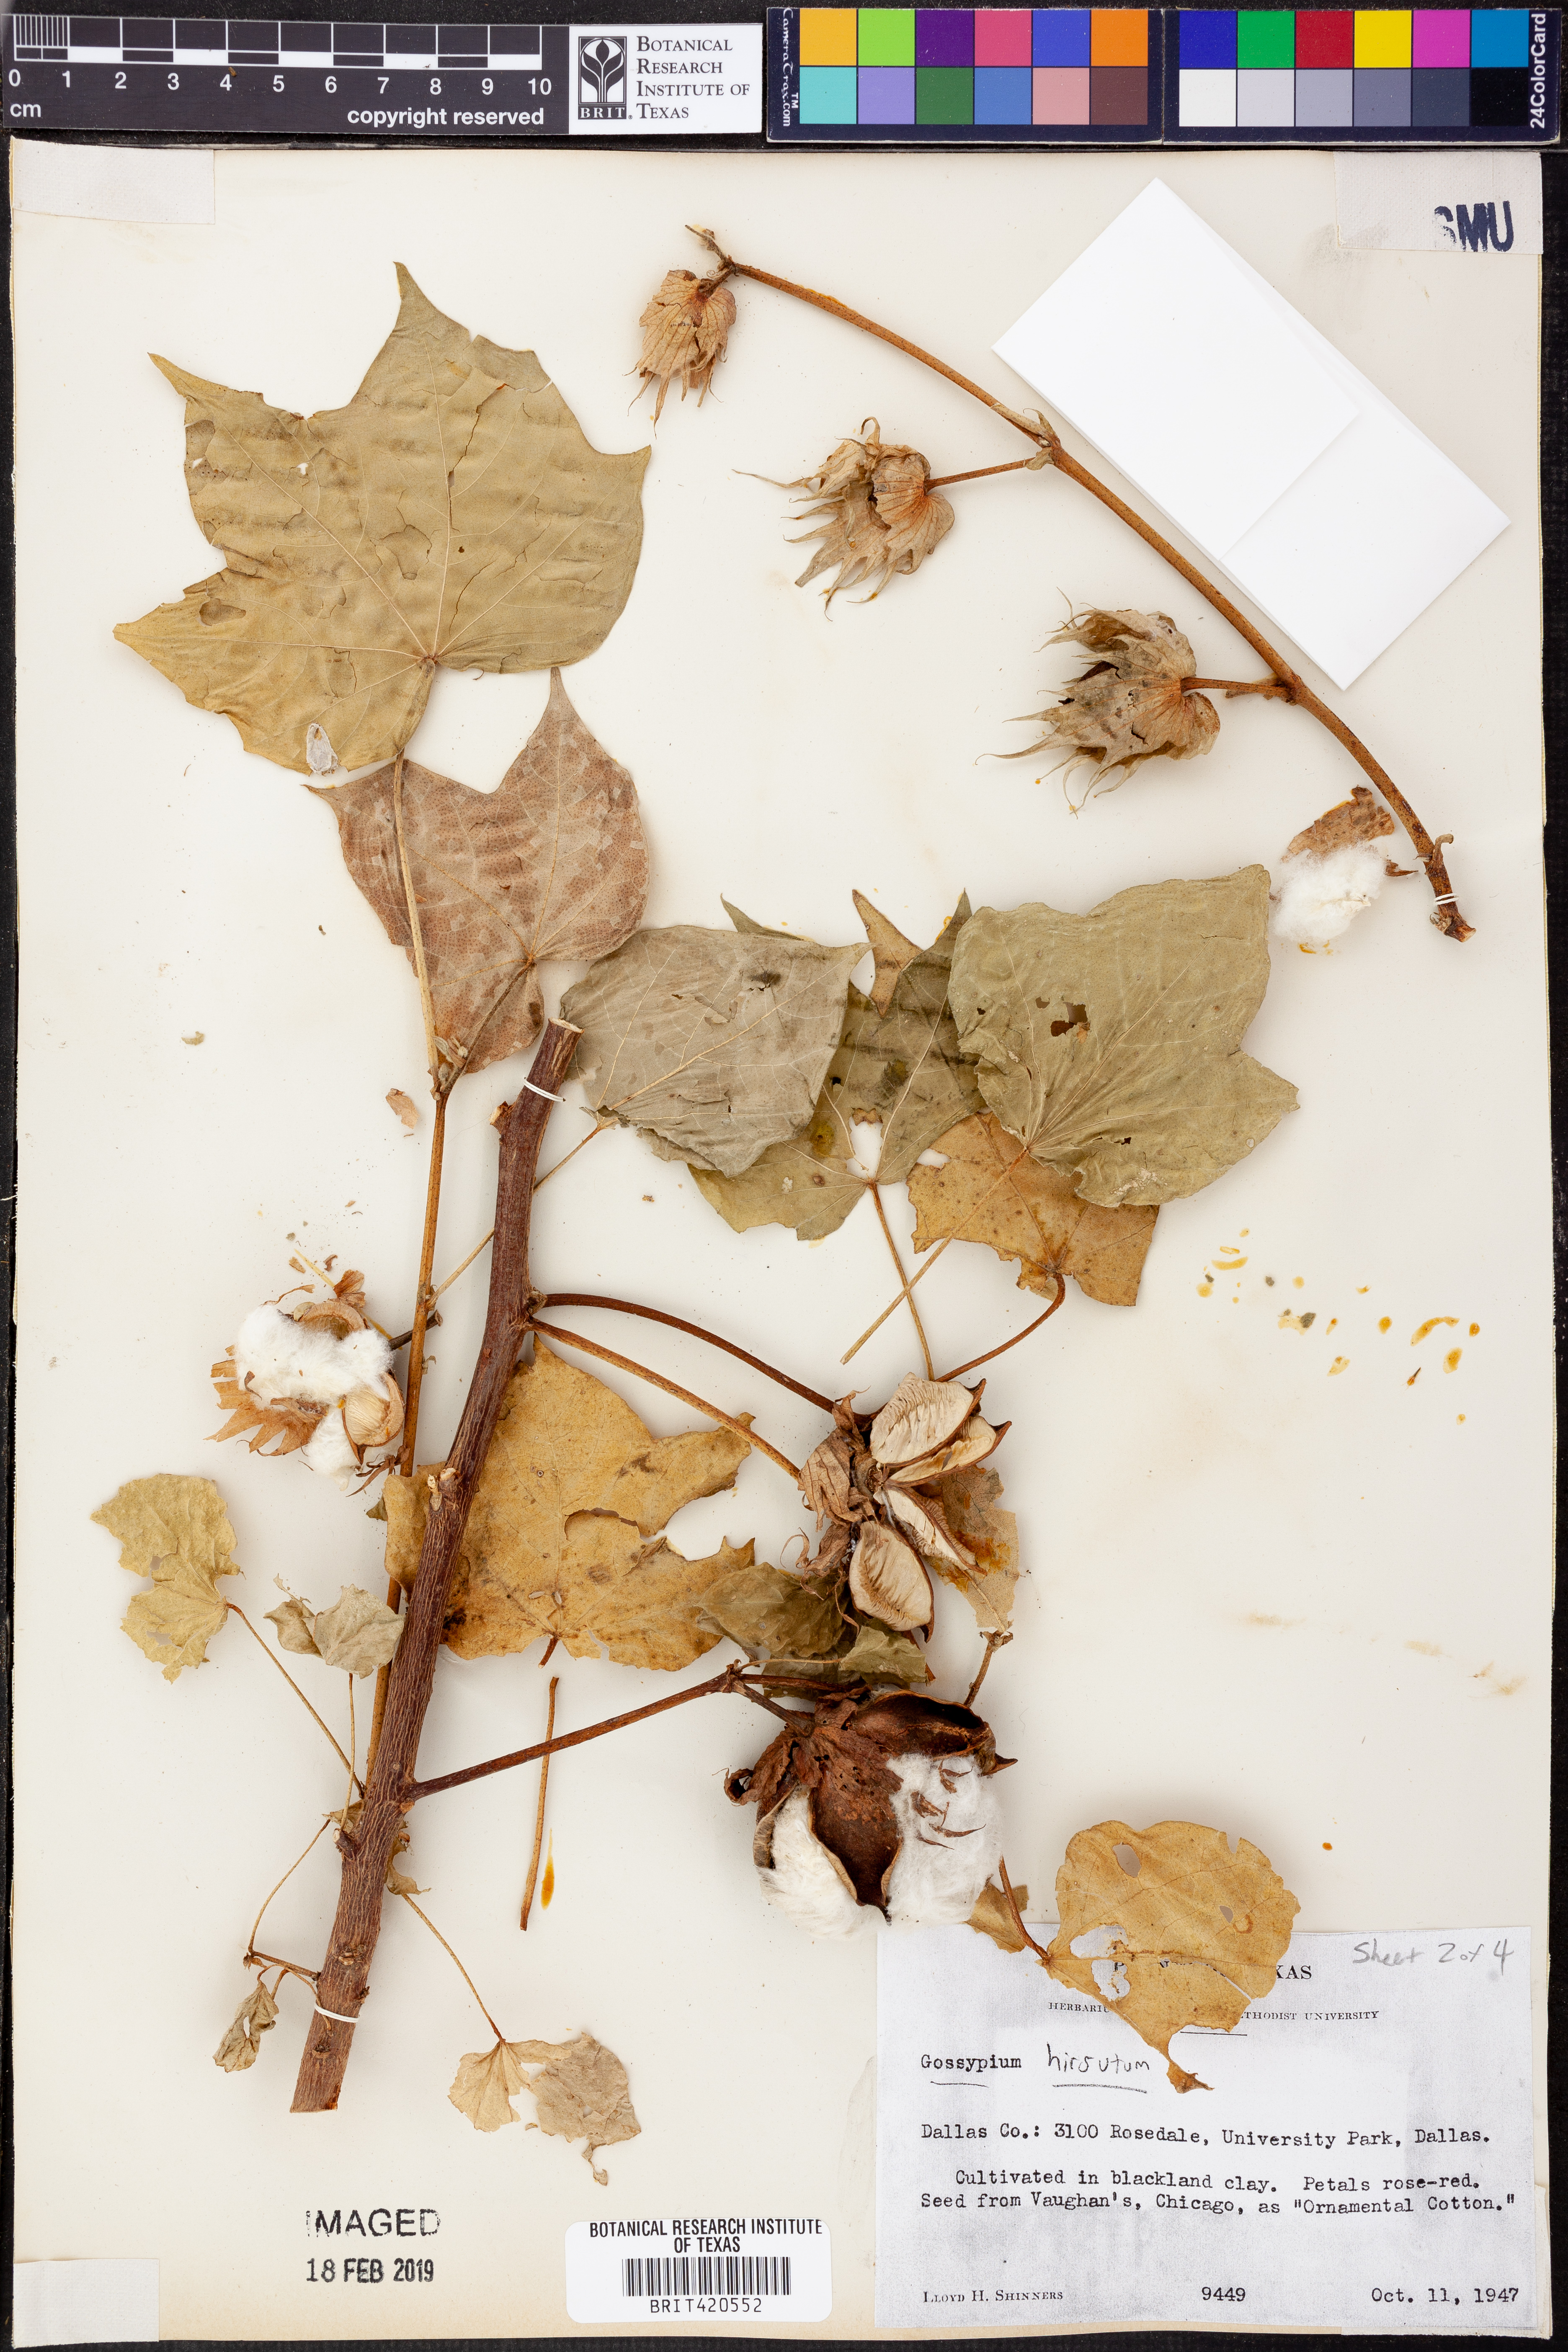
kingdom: Plantae
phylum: Tracheophyta
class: Magnoliopsida
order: Malvales
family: Malvaceae
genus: Gossypium
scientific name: Gossypium hirsutum
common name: Cotton
